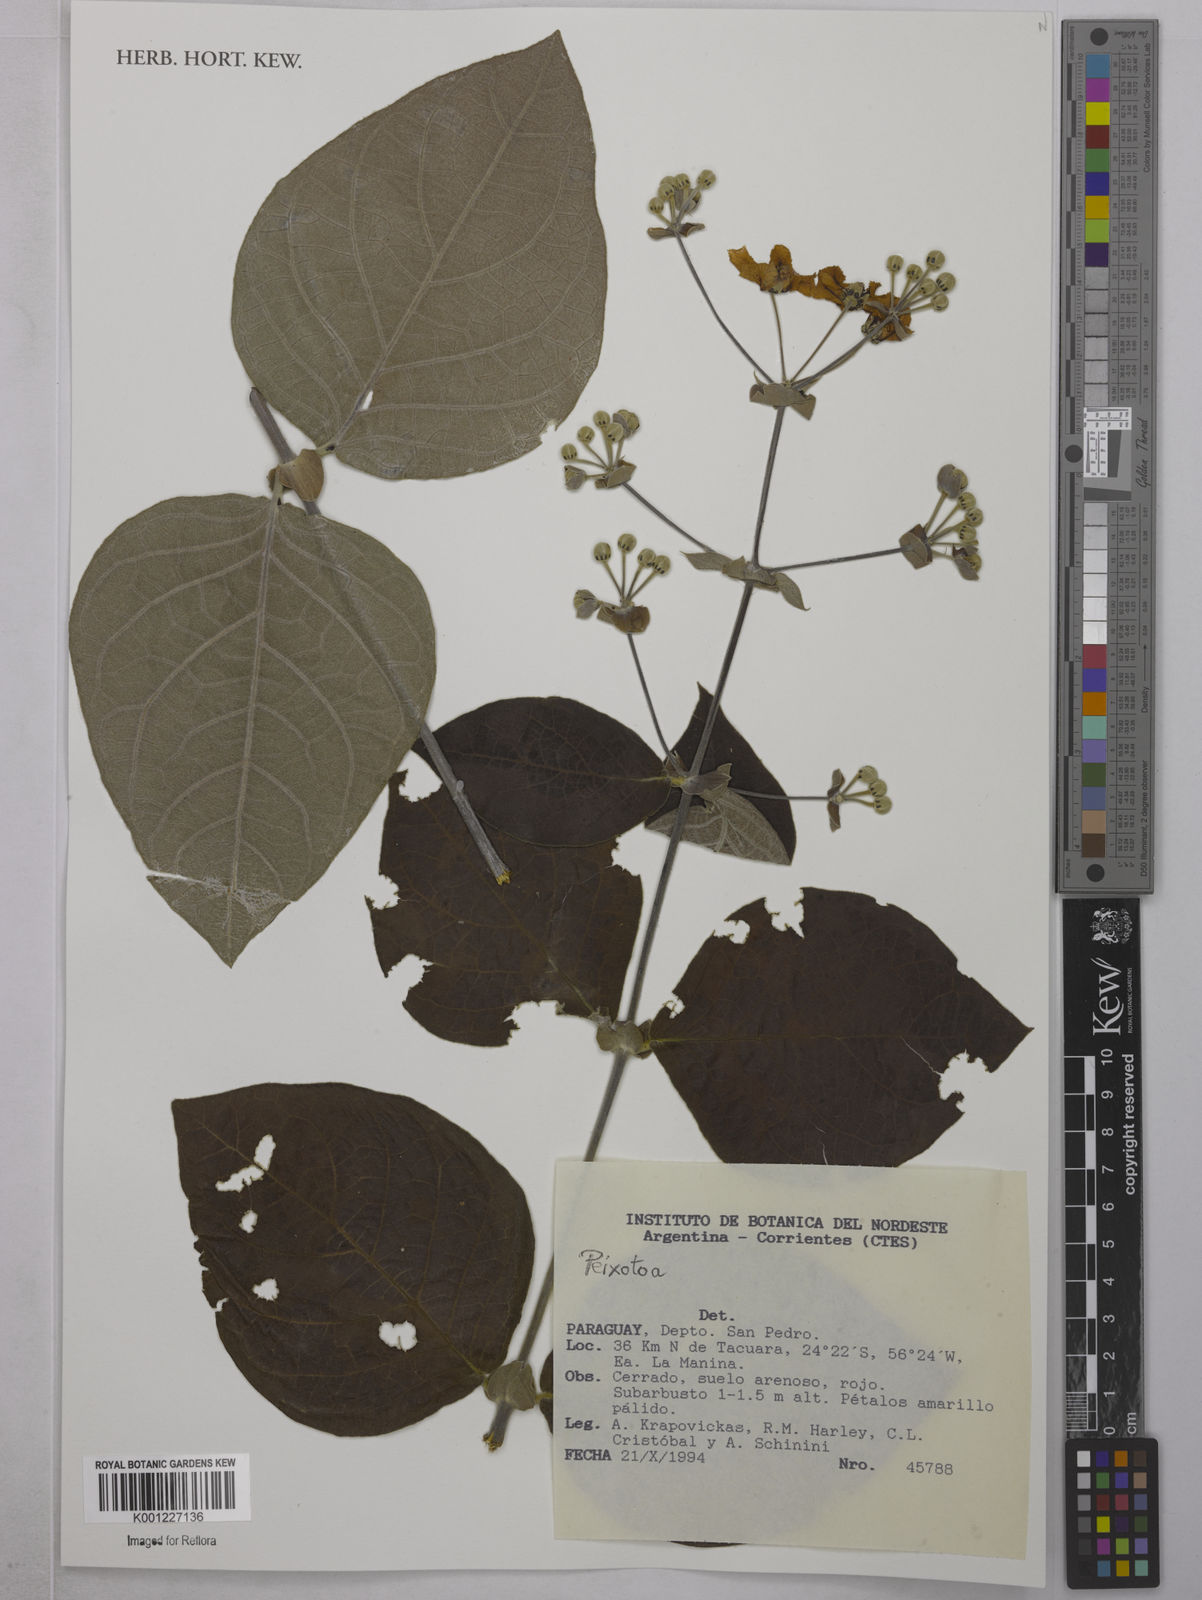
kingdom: Plantae
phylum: Tracheophyta
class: Magnoliopsida
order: Malpighiales
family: Malpighiaceae
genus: Peixotoa
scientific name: Peixotoa
